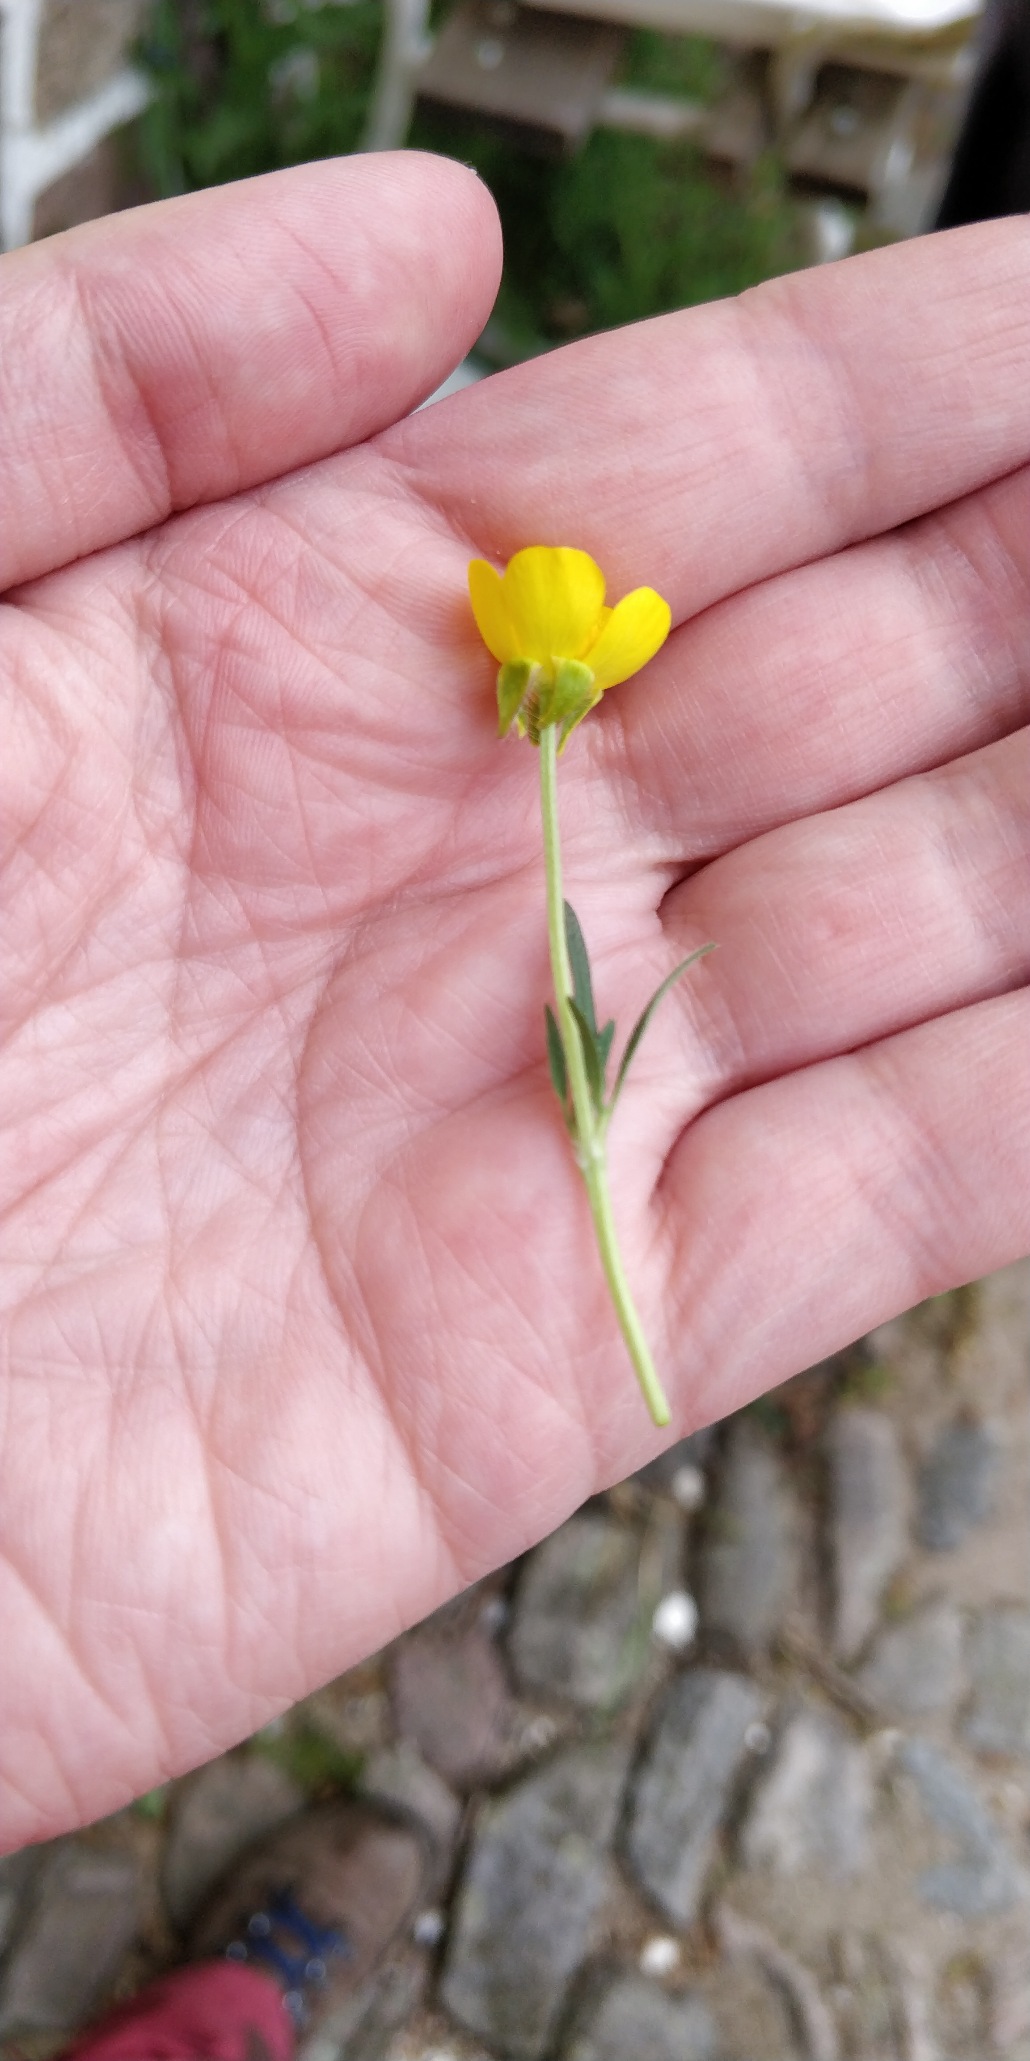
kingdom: Plantae
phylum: Tracheophyta
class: Magnoliopsida
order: Ranunculales
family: Ranunculaceae
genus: Ranunculus
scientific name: Ranunculus bulbosus
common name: Knold-ranunkel
